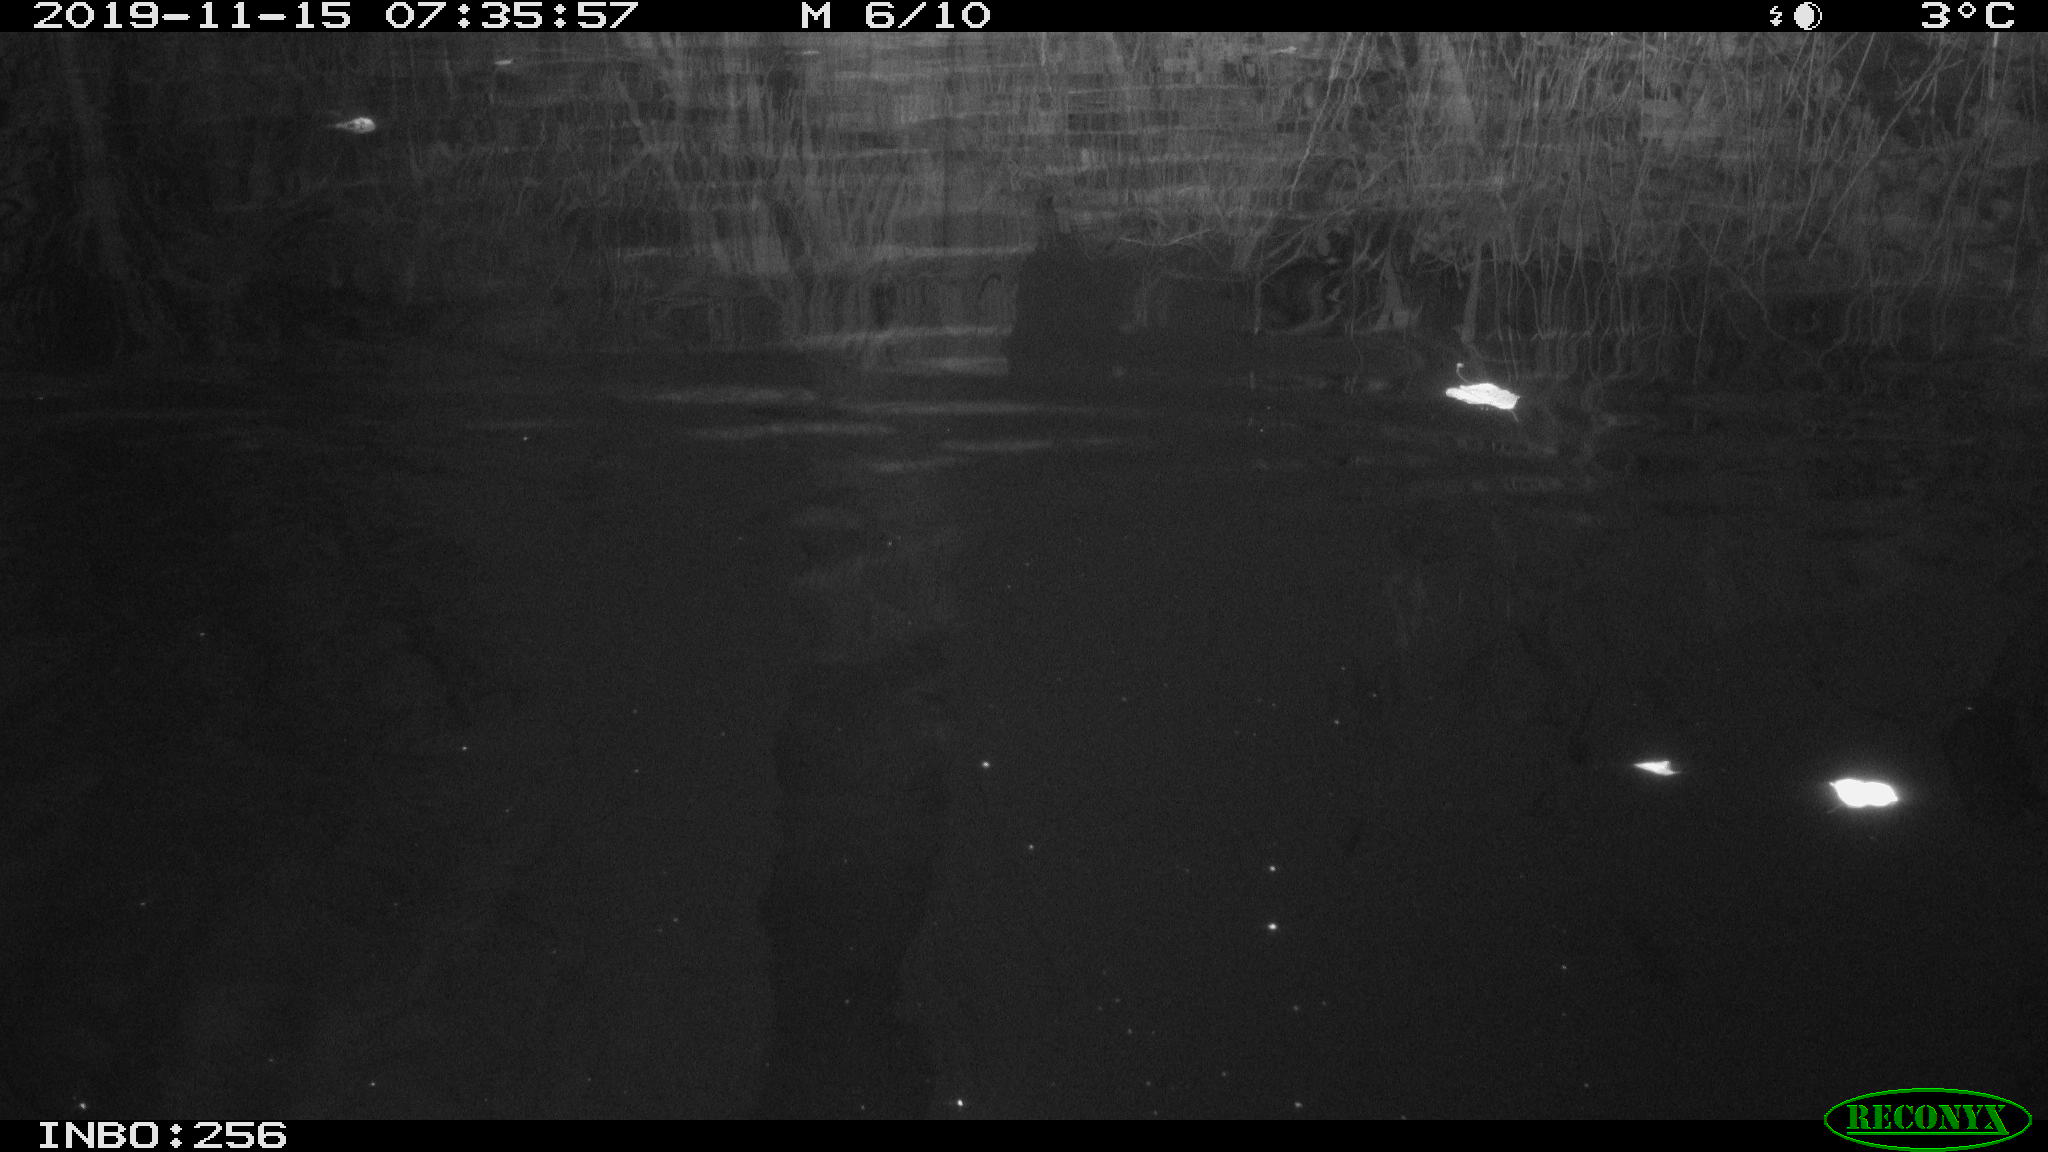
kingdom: Animalia
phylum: Chordata
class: Aves
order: Gruiformes
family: Rallidae
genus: Gallinula
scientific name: Gallinula chloropus
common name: Common moorhen
